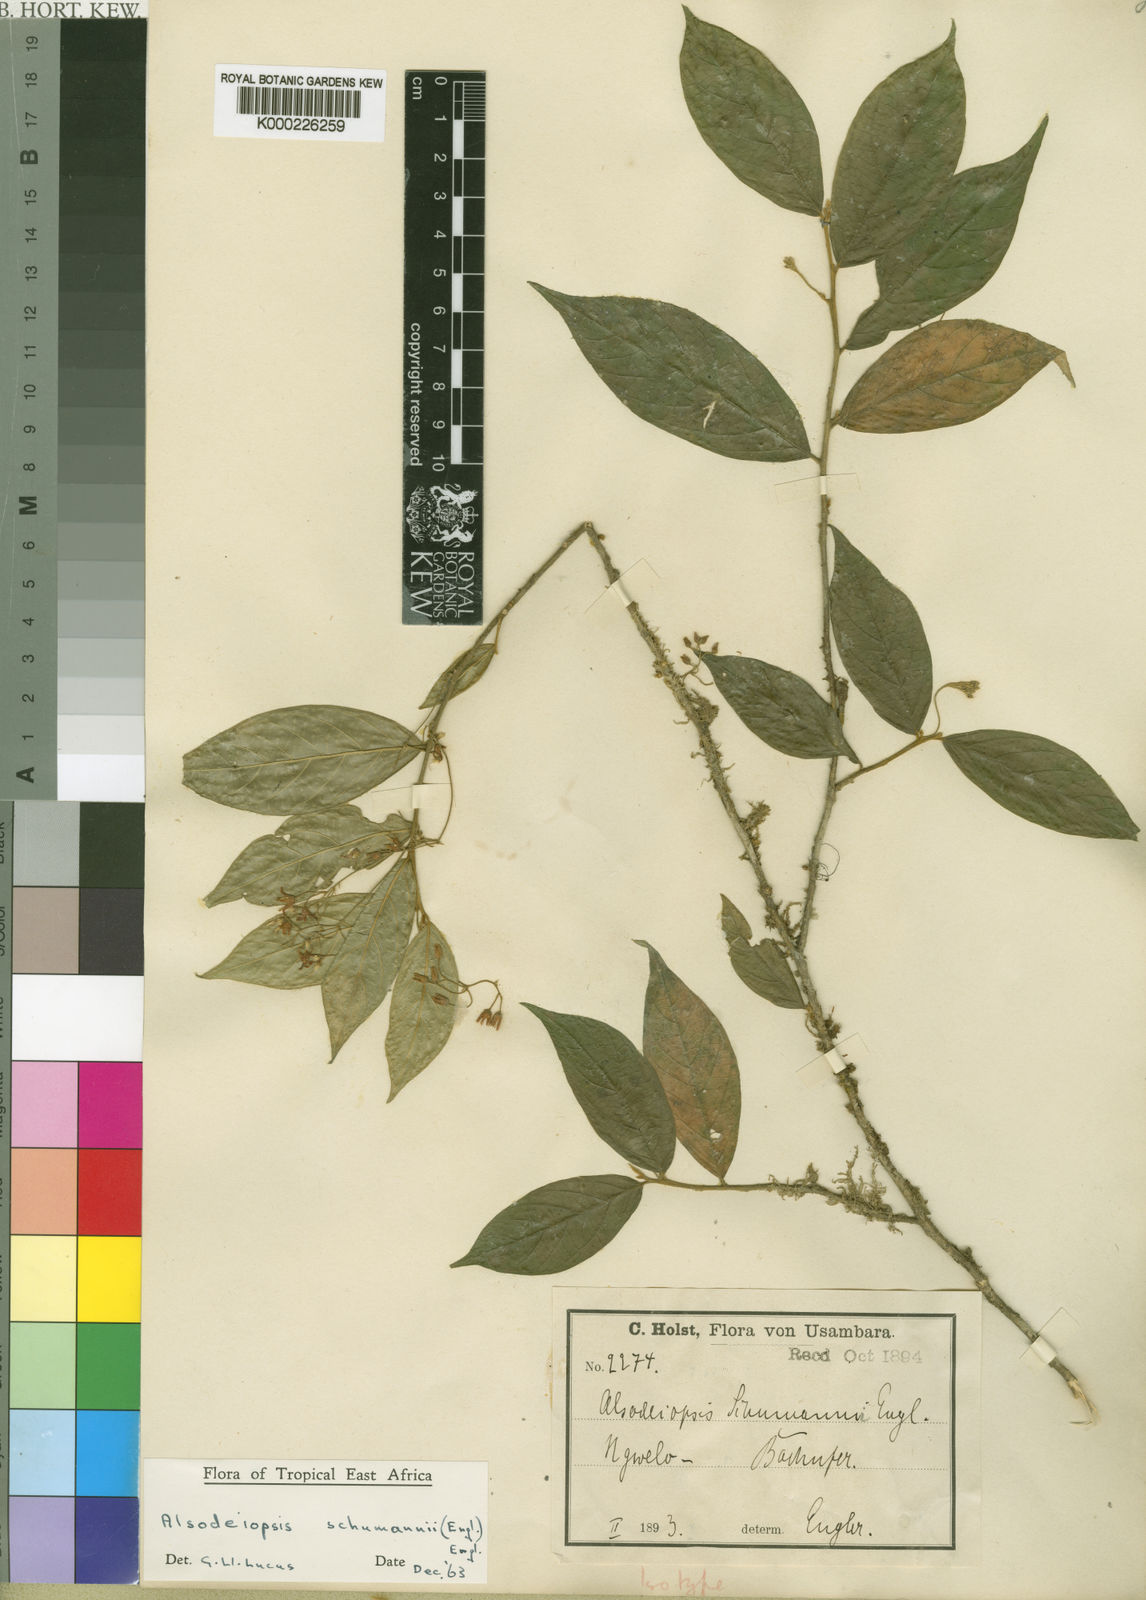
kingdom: Plantae
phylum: Tracheophyta
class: Magnoliopsida
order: Icacinales
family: Icacinaceae
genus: Alsodeiopsis
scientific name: Alsodeiopsis schumannii
